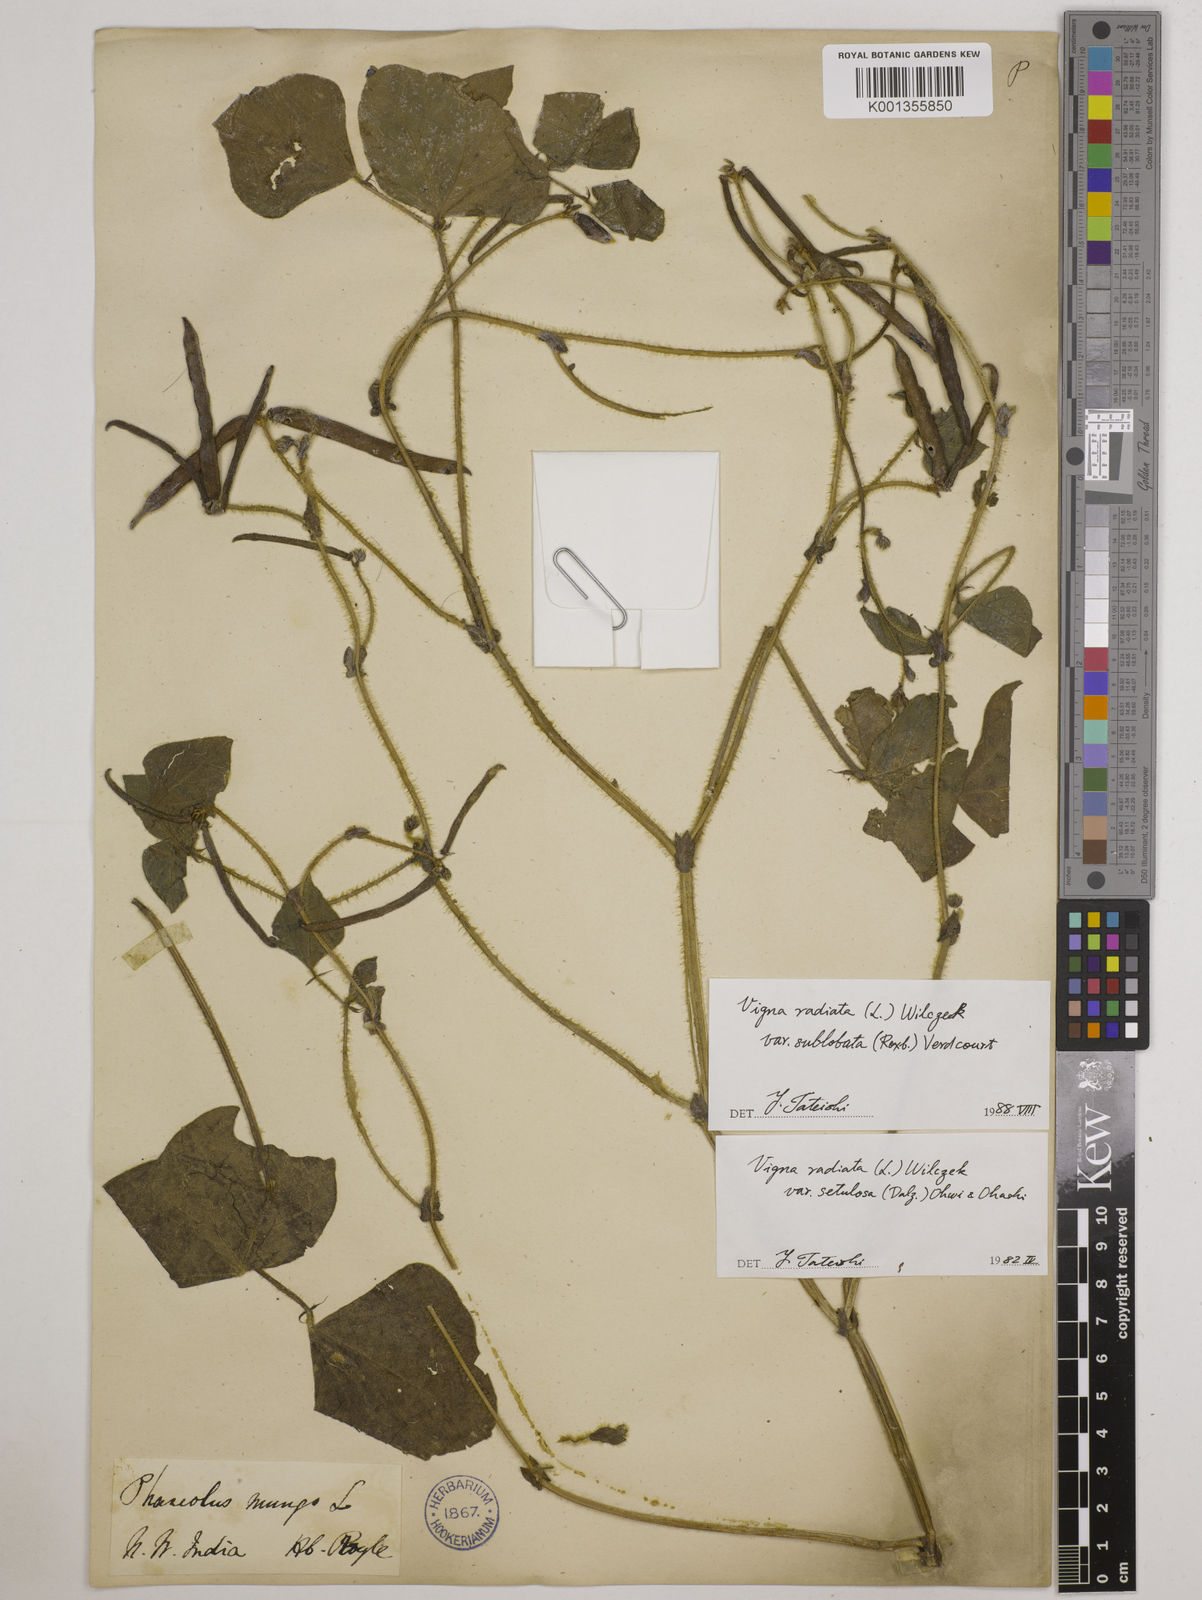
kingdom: Plantae
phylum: Tracheophyta
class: Magnoliopsida
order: Fabales
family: Fabaceae
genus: Vigna
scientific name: Vigna radiata
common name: Mung-bean
